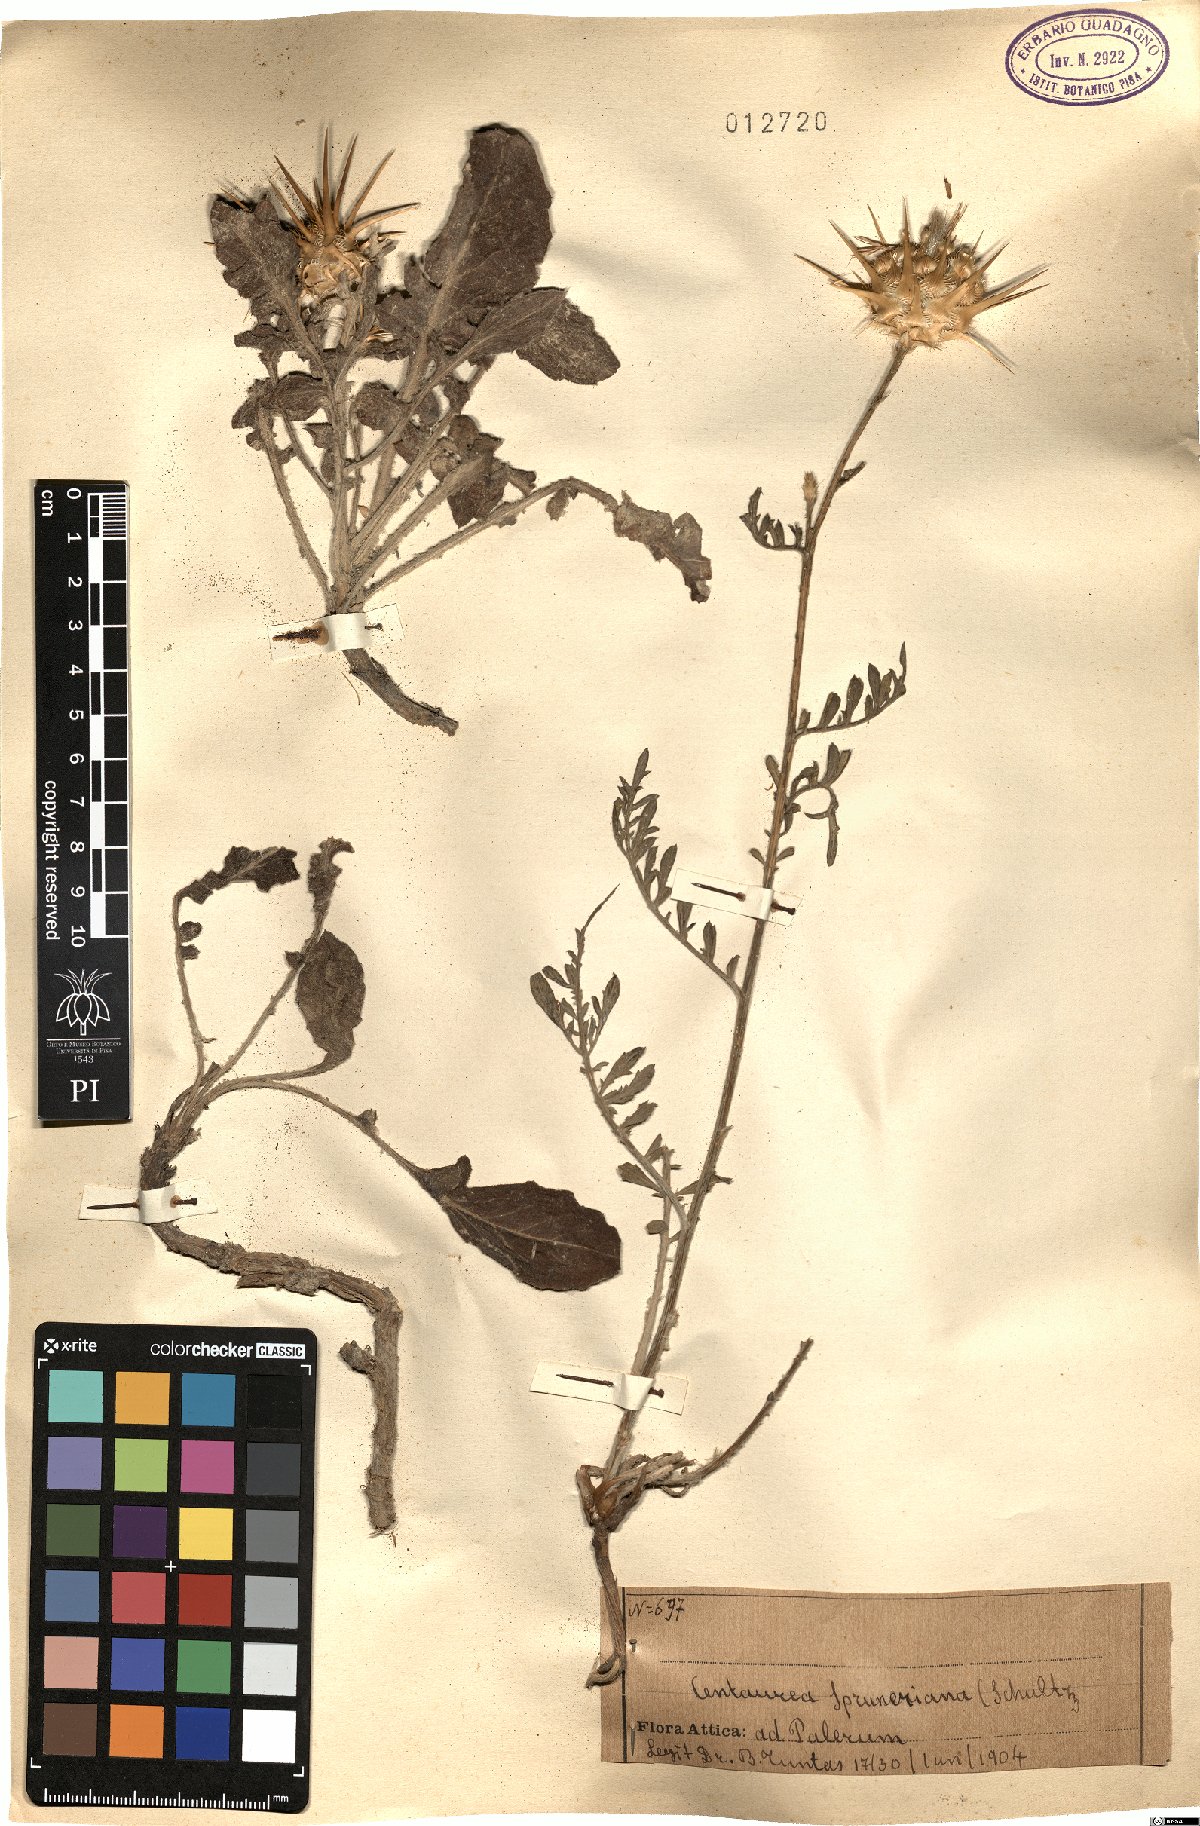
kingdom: Plantae
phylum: Tracheophyta
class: Magnoliopsida
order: Asterales
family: Asteraceae
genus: Centaurea
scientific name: Centaurea spruneri
